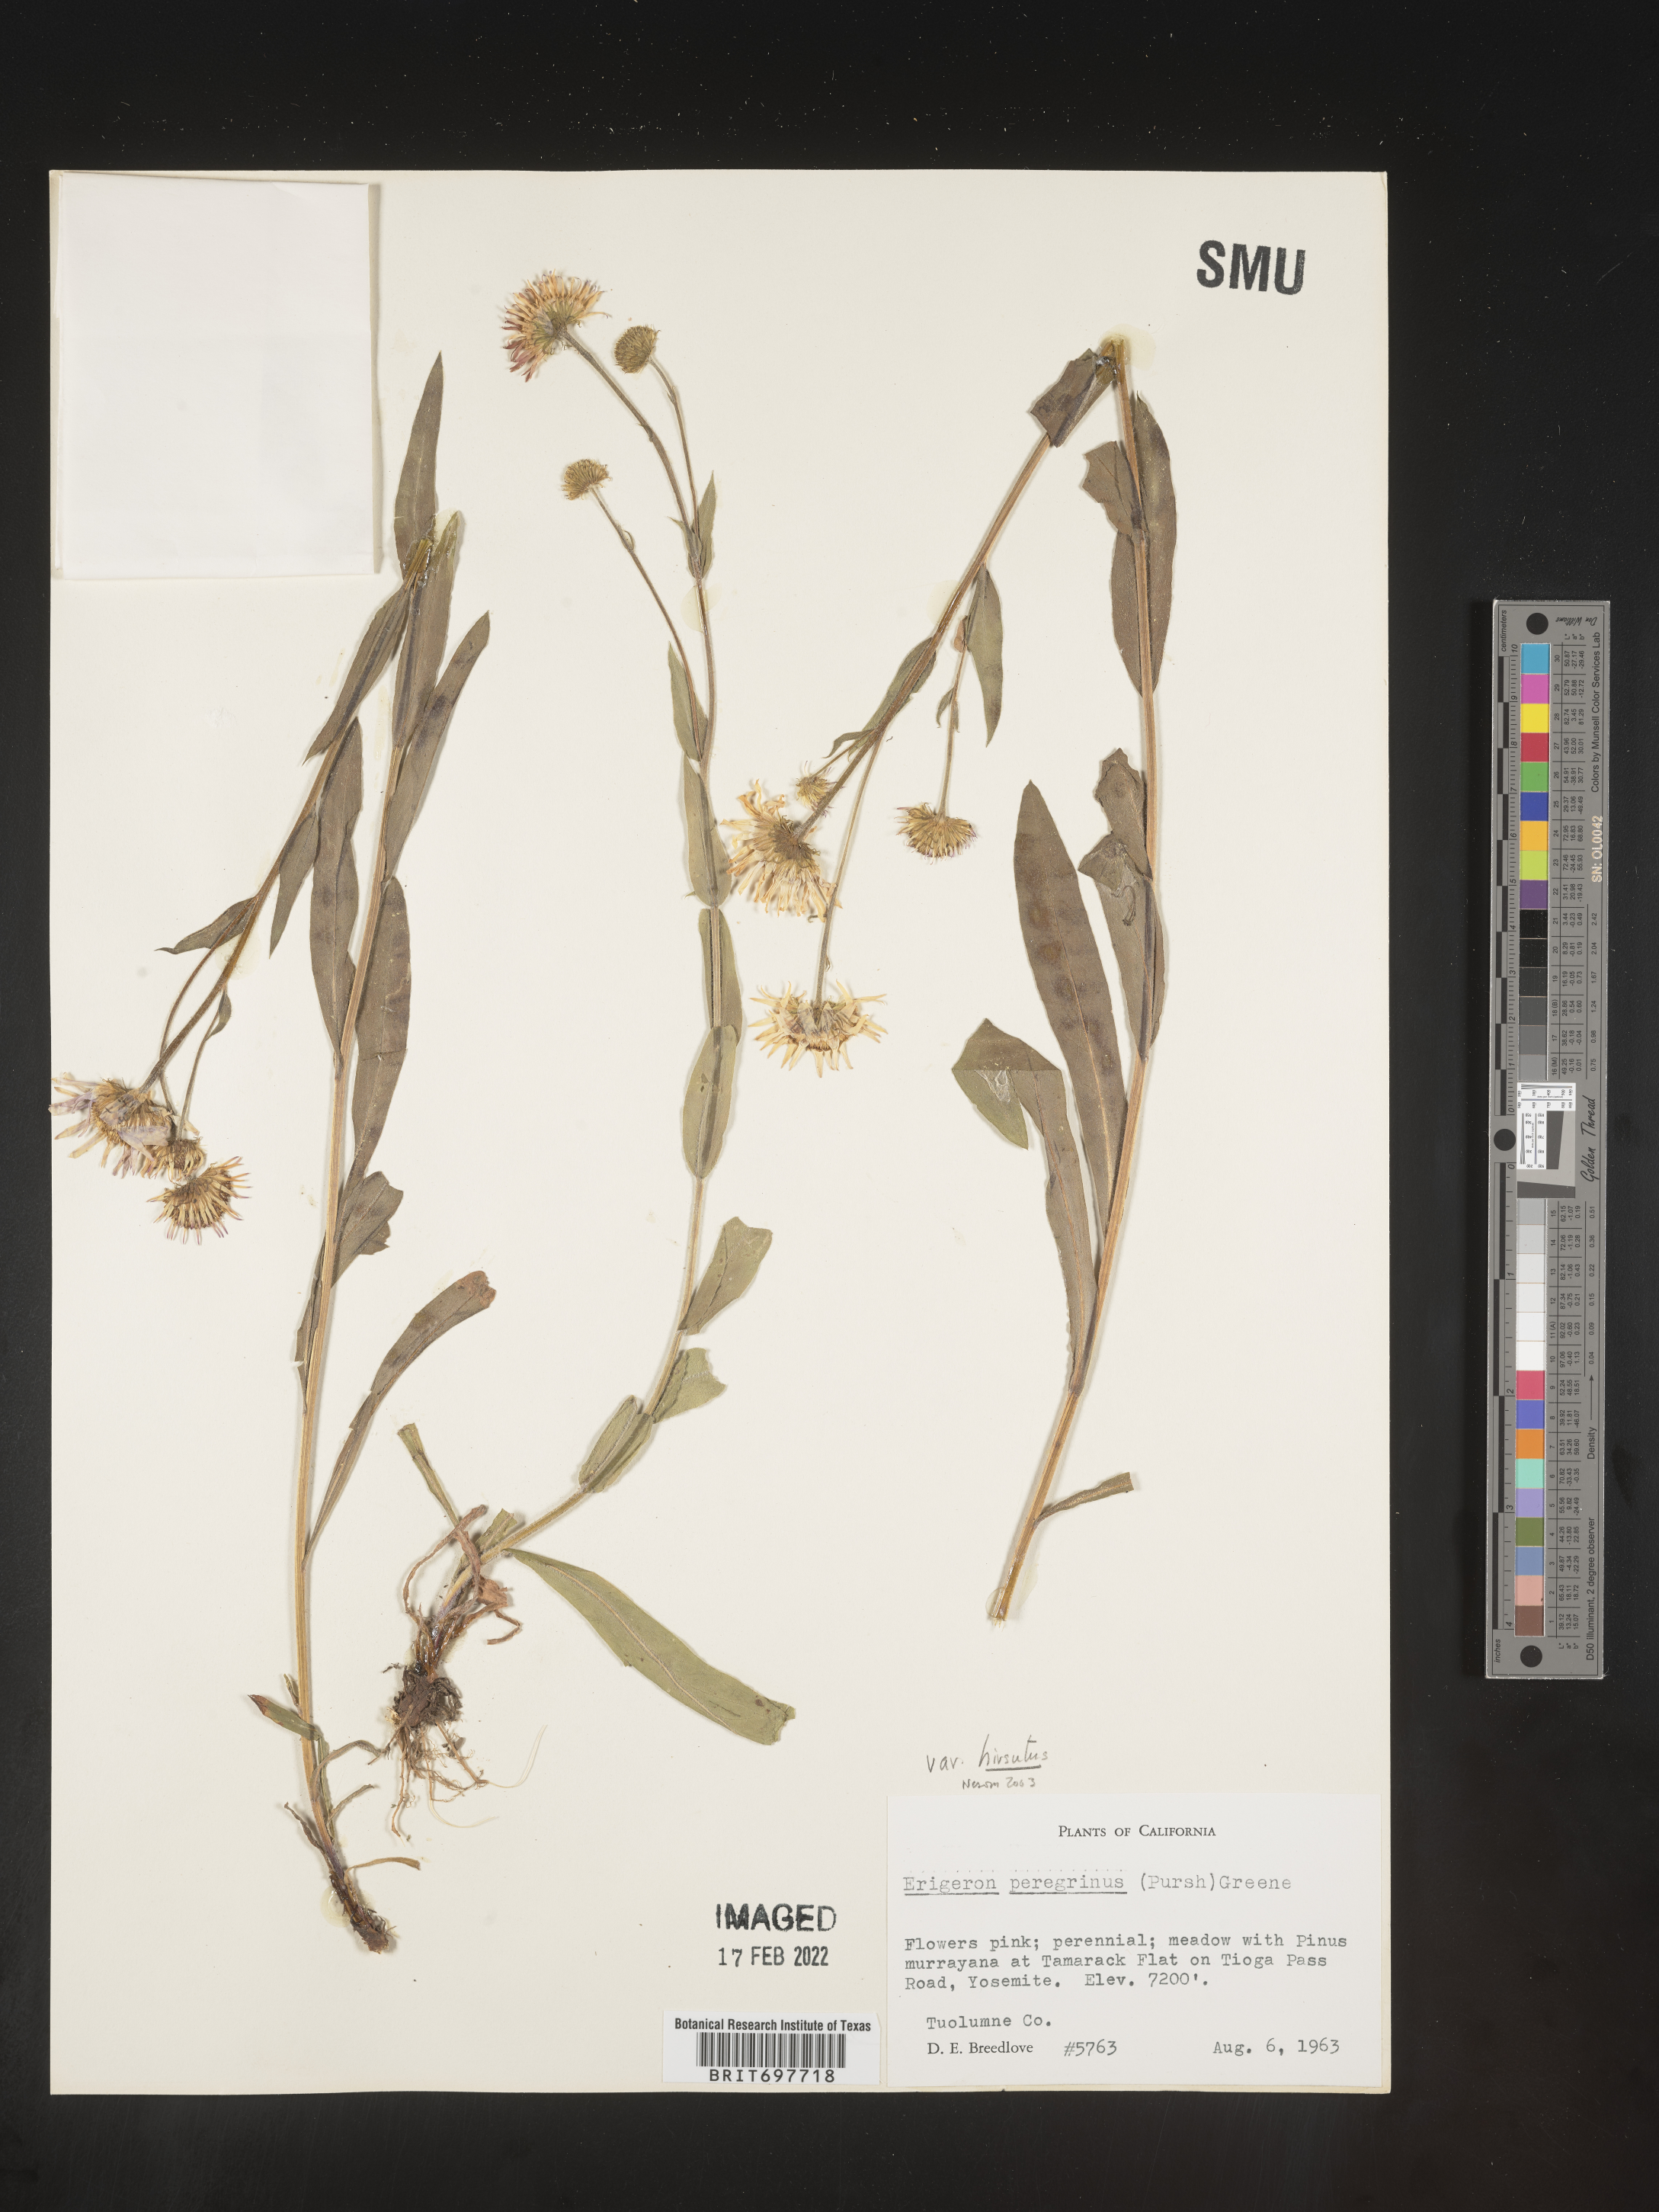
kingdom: Plantae
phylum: Tracheophyta
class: Magnoliopsida
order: Asterales
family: Asteraceae
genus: Erigeron
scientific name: Erigeron glacialis
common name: Subalpine fleabane
